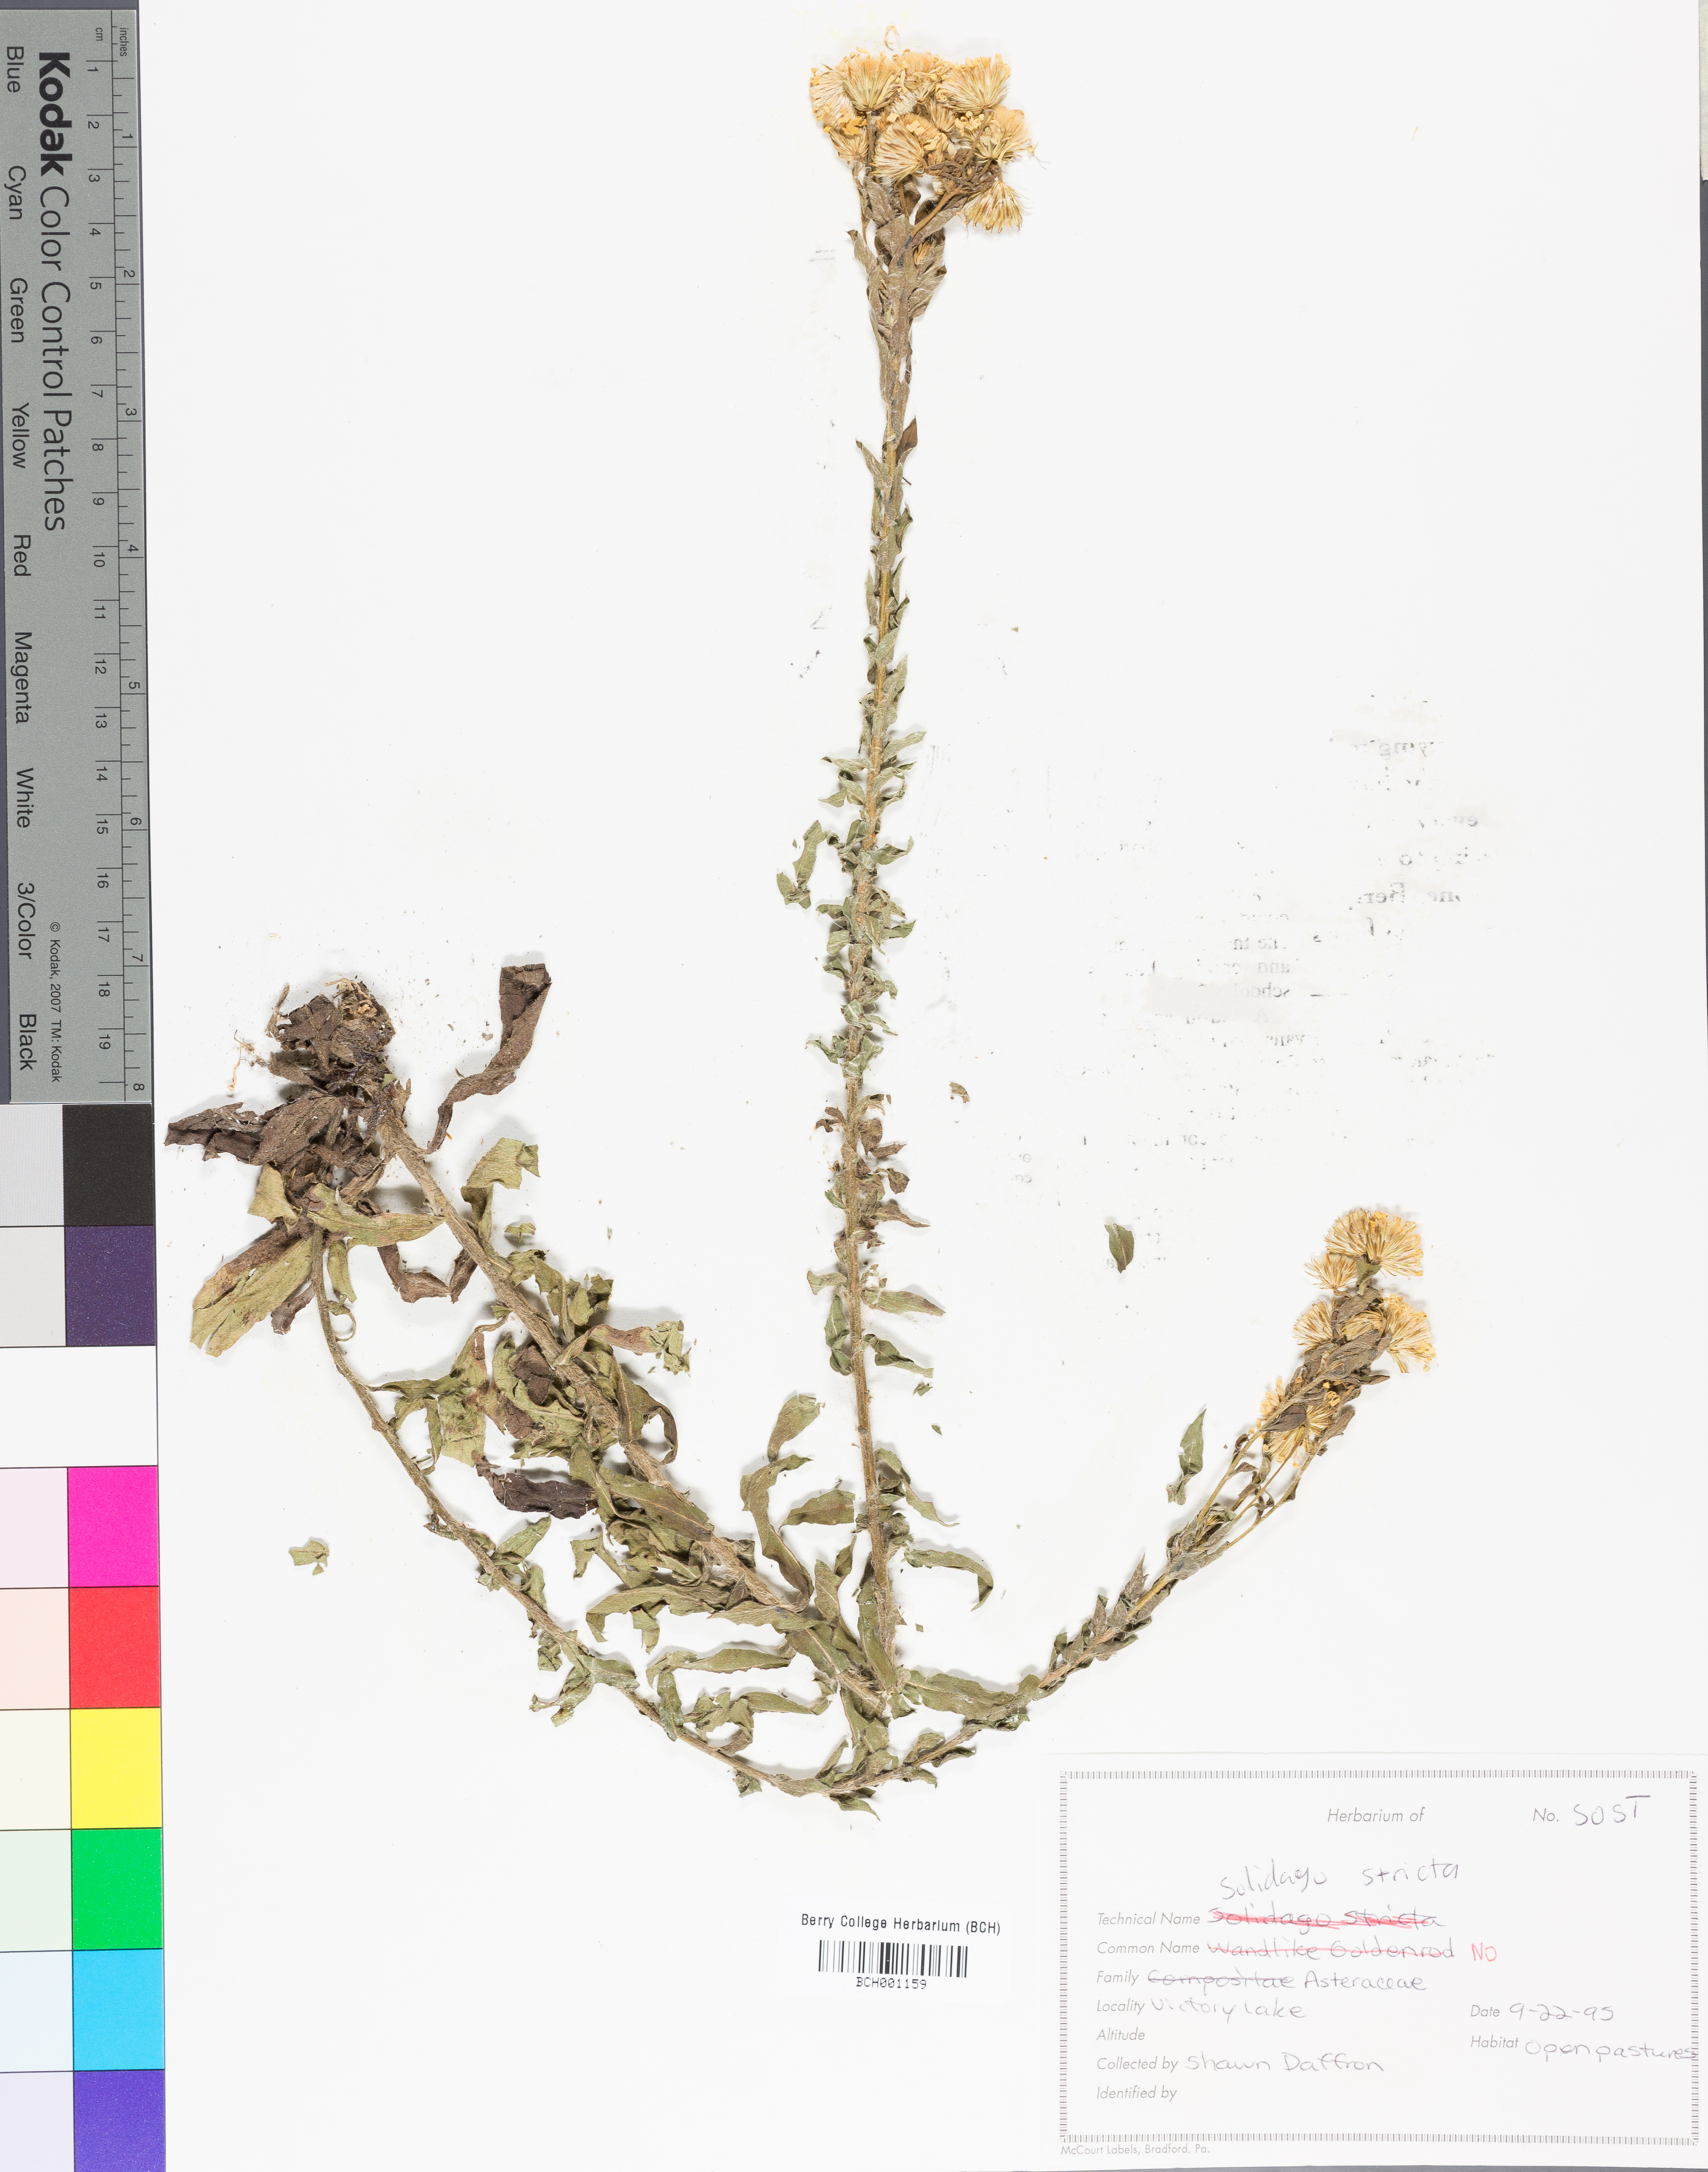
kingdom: Plantae
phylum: Tracheophyta
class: Magnoliopsida
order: Asterales
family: Asteraceae
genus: Solidago
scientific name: Solidago stricta
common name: Pine barren bog goldenrod
